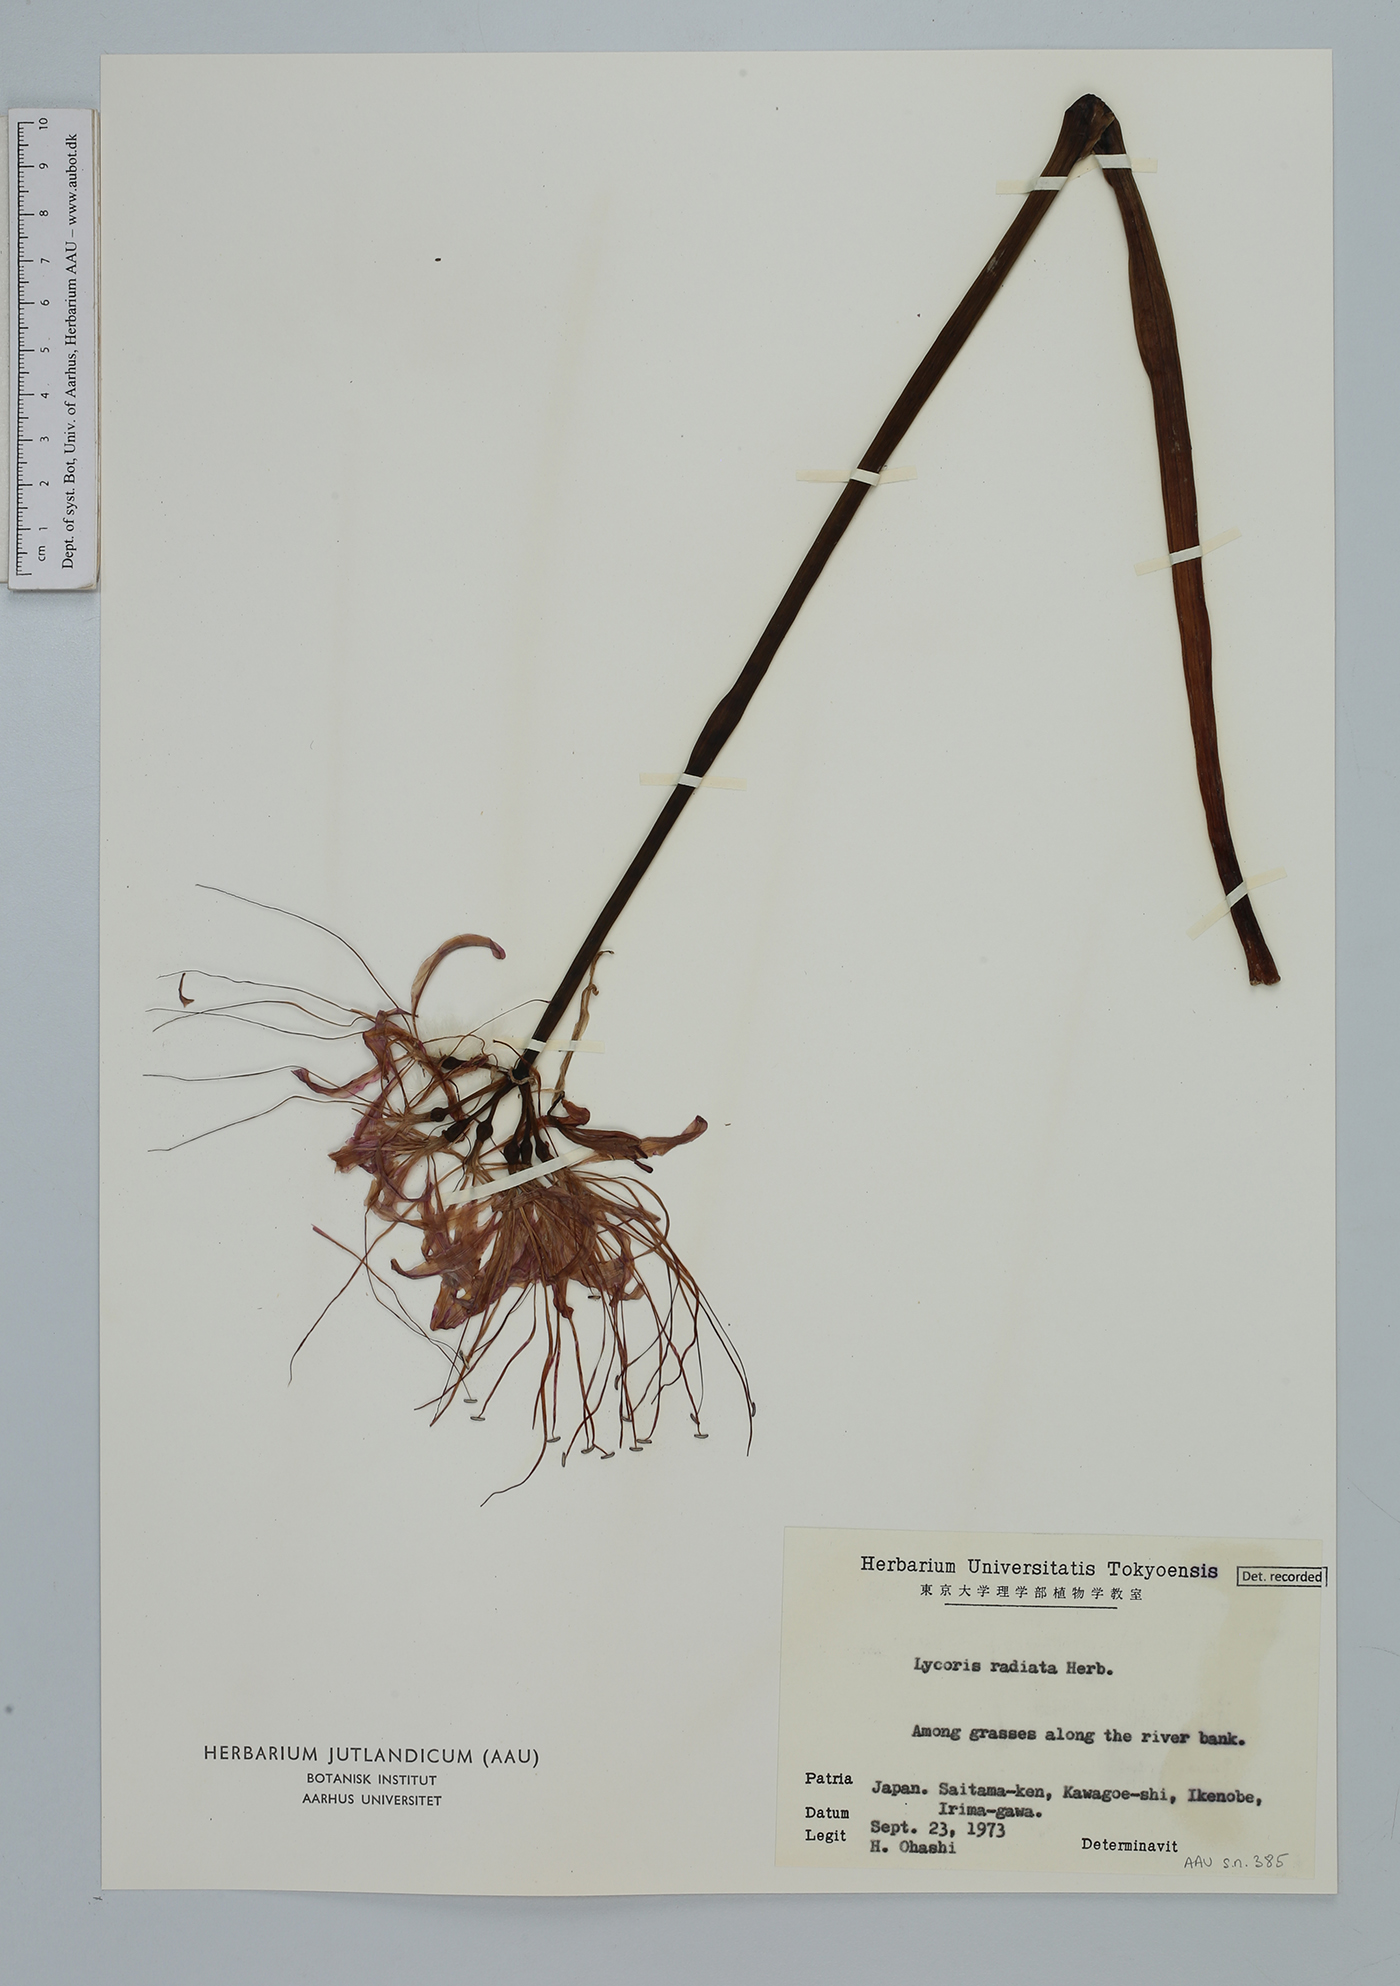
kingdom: Plantae
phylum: Tracheophyta
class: Liliopsida
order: Asparagales
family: Amaryllidaceae
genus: Lycoris
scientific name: Lycoris radiata
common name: Red spider lily
